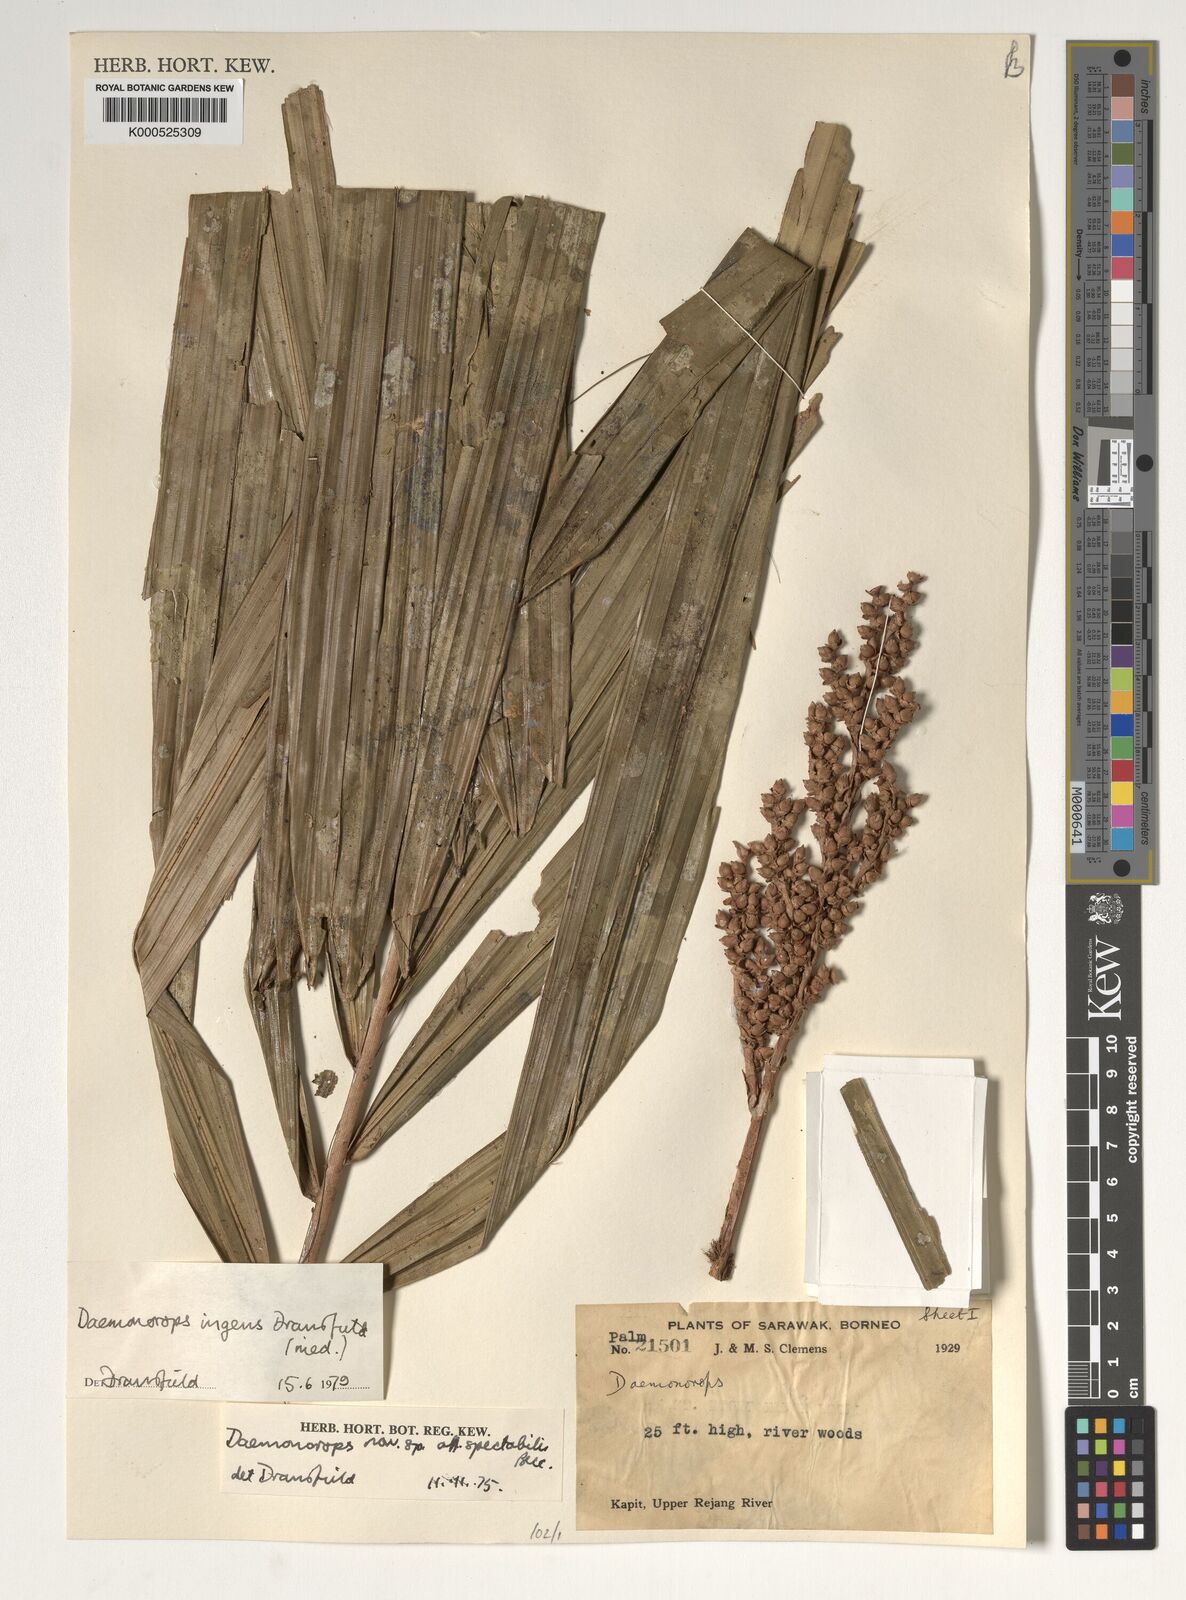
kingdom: Plantae
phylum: Tracheophyta
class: Liliopsida
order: Arecales
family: Arecaceae
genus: Calamus
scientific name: Calamus ingens
